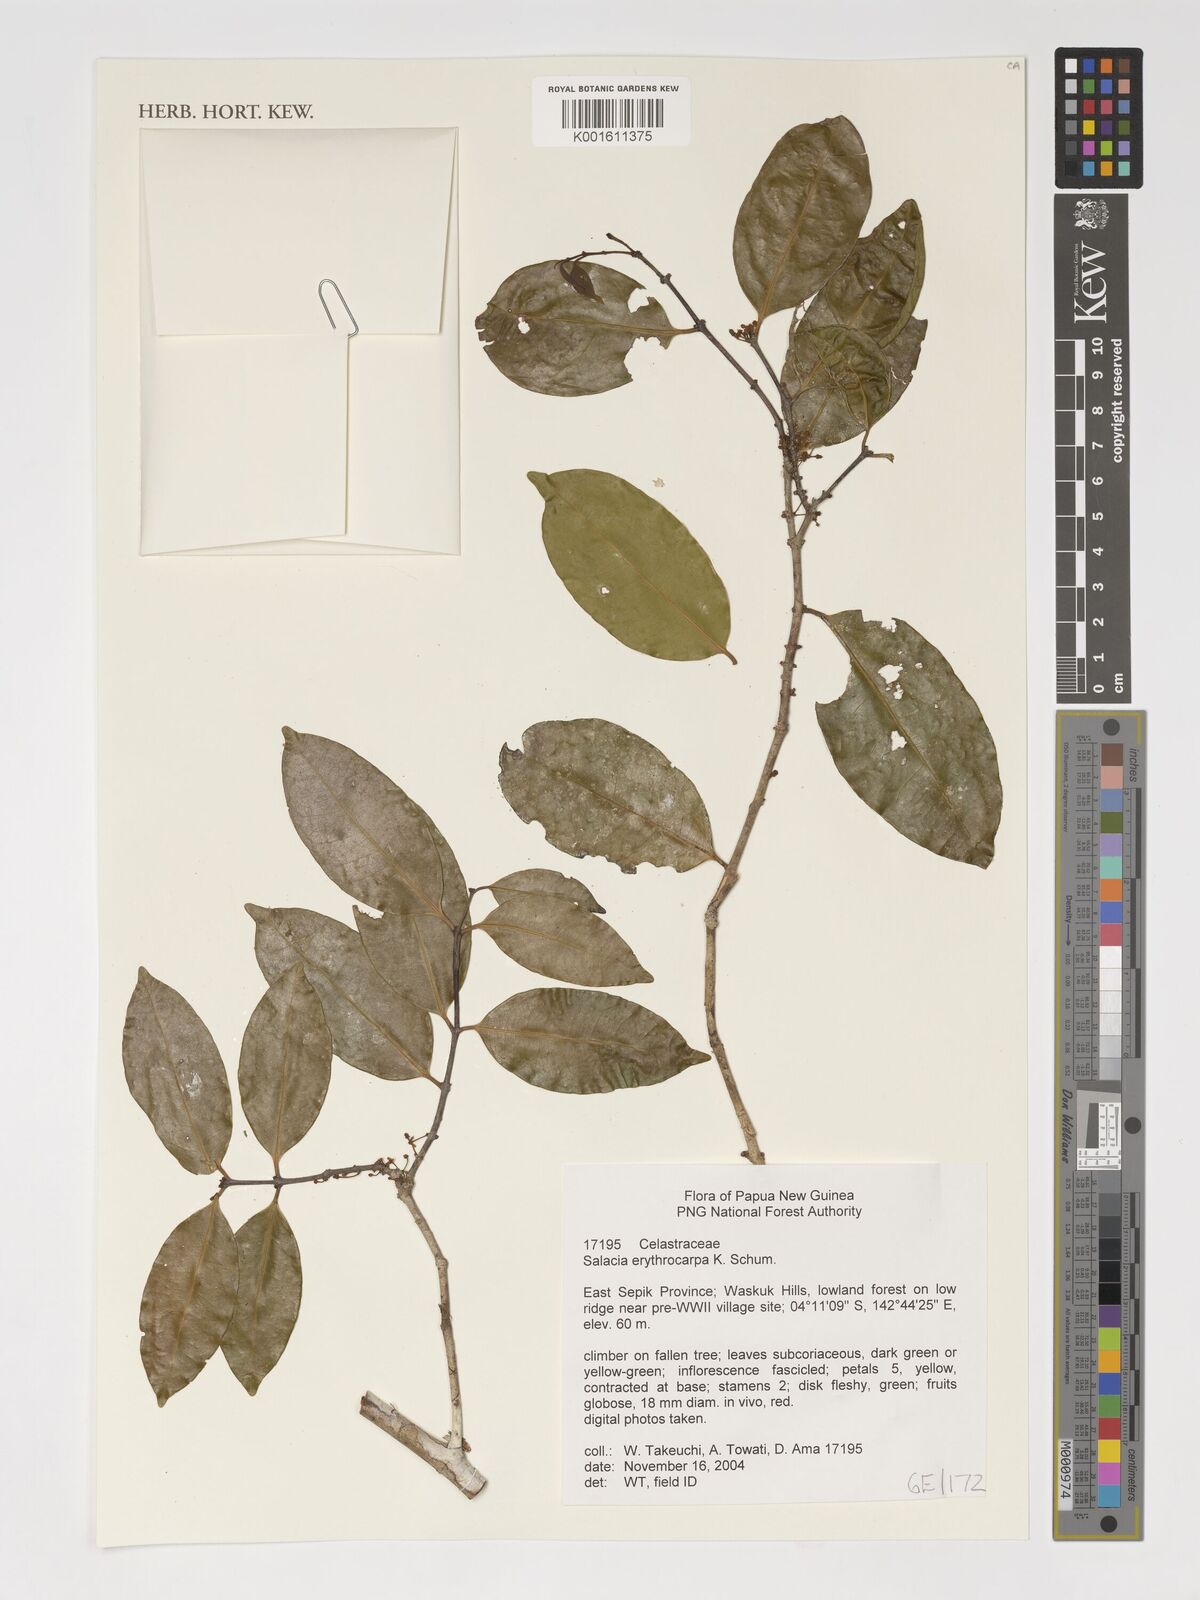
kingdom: Plantae
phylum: Tracheophyta
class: Magnoliopsida
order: Celastrales
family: Celastraceae
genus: Salacia
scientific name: Salacia erythrocarpa
